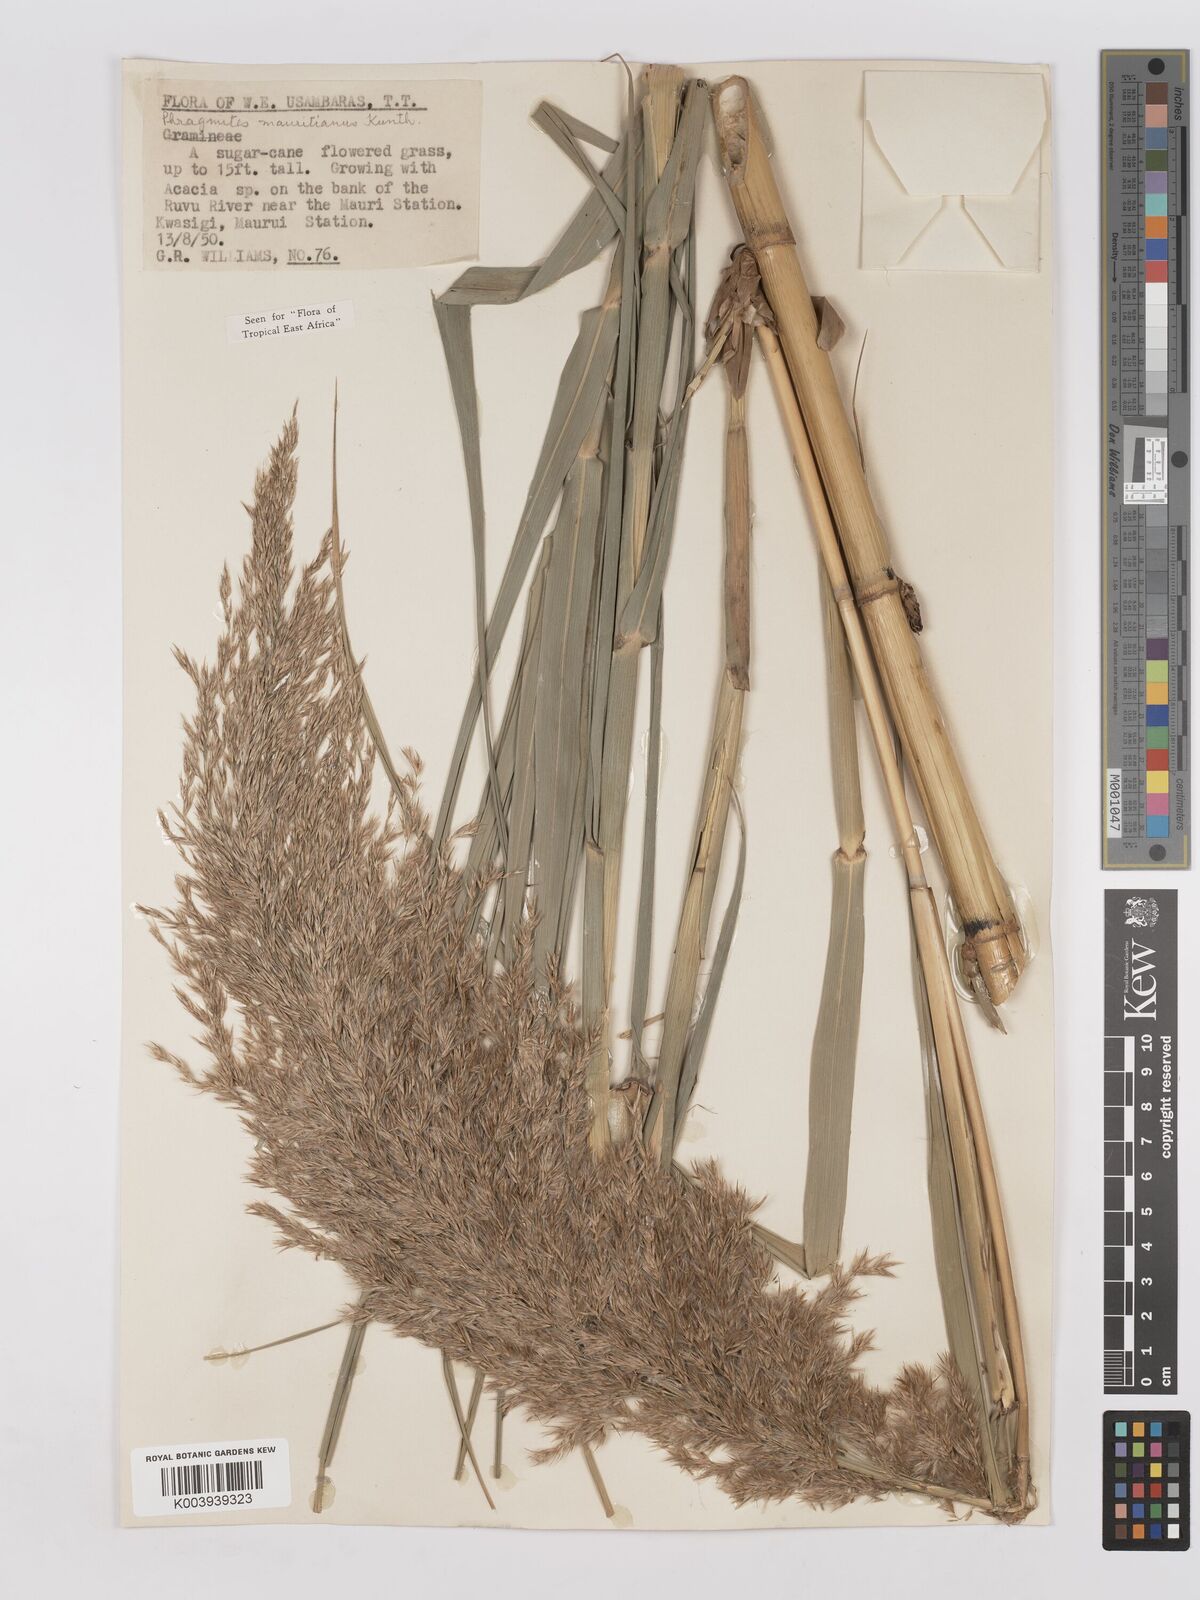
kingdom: Plantae
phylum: Tracheophyta
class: Liliopsida
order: Poales
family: Poaceae
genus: Phragmites
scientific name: Phragmites mauritianus
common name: Reed grass
